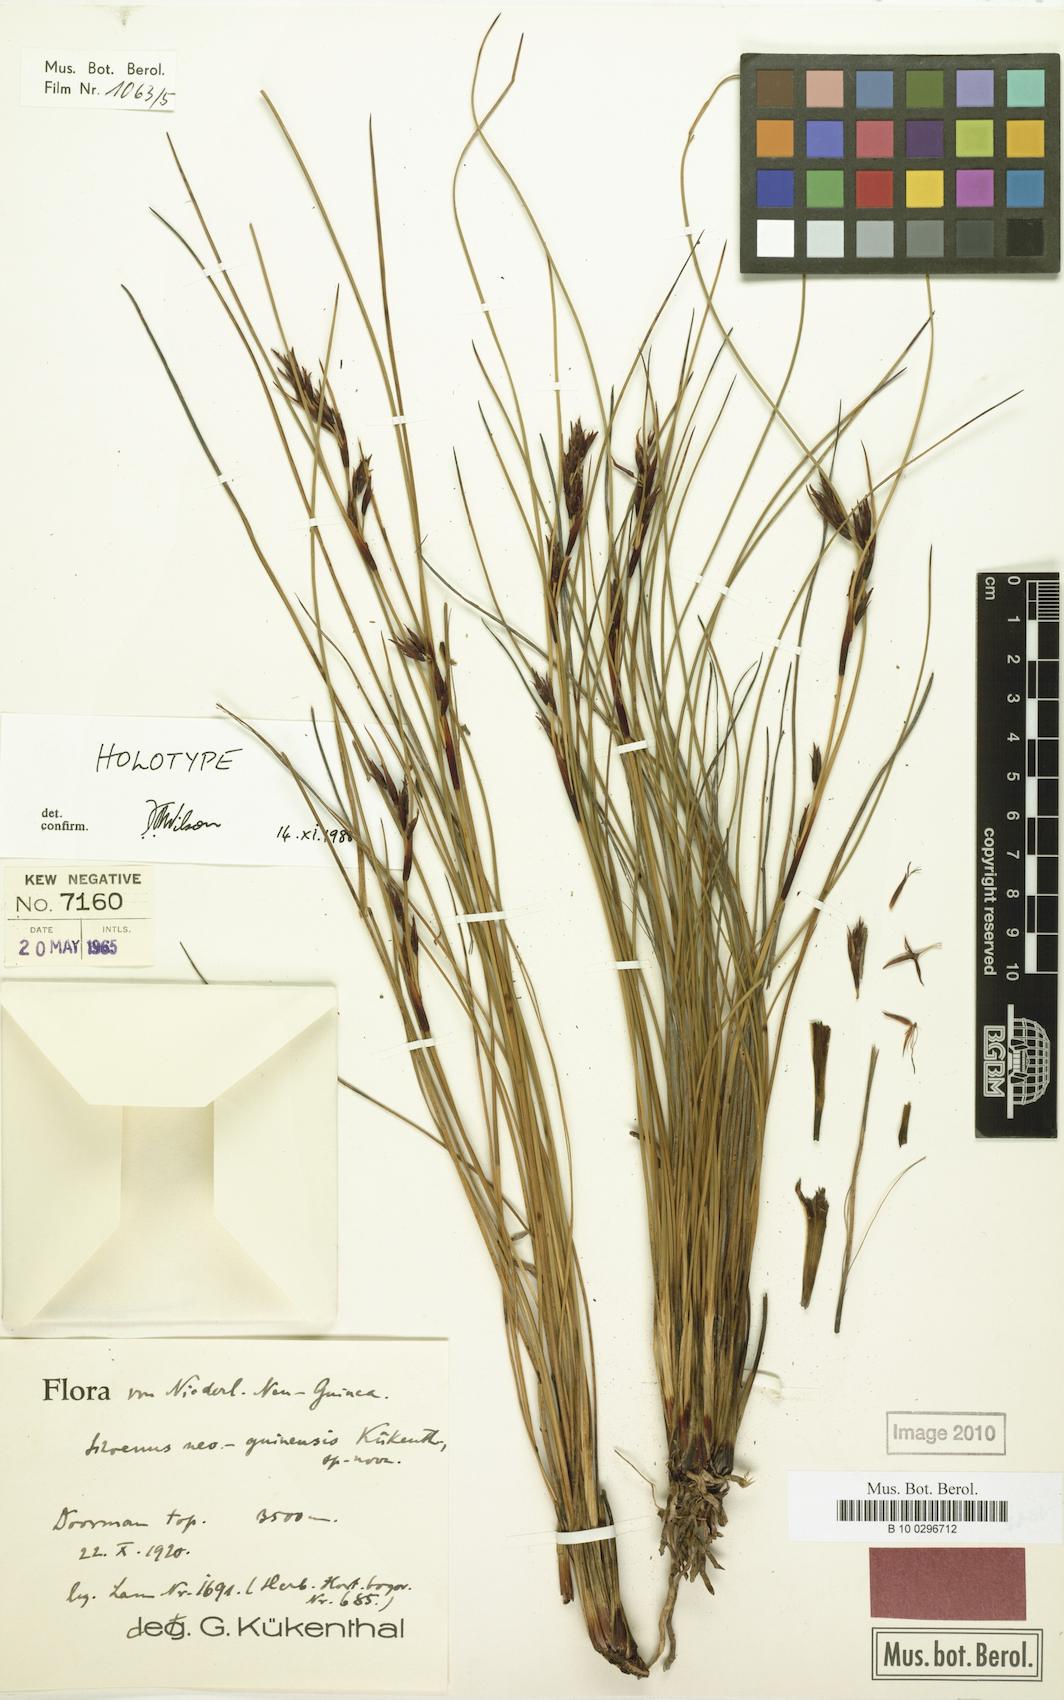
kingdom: Plantae
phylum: Tracheophyta
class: Liliopsida
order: Poales
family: Cyperaceae
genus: Schoenus
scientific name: Schoenus longibracteatus
